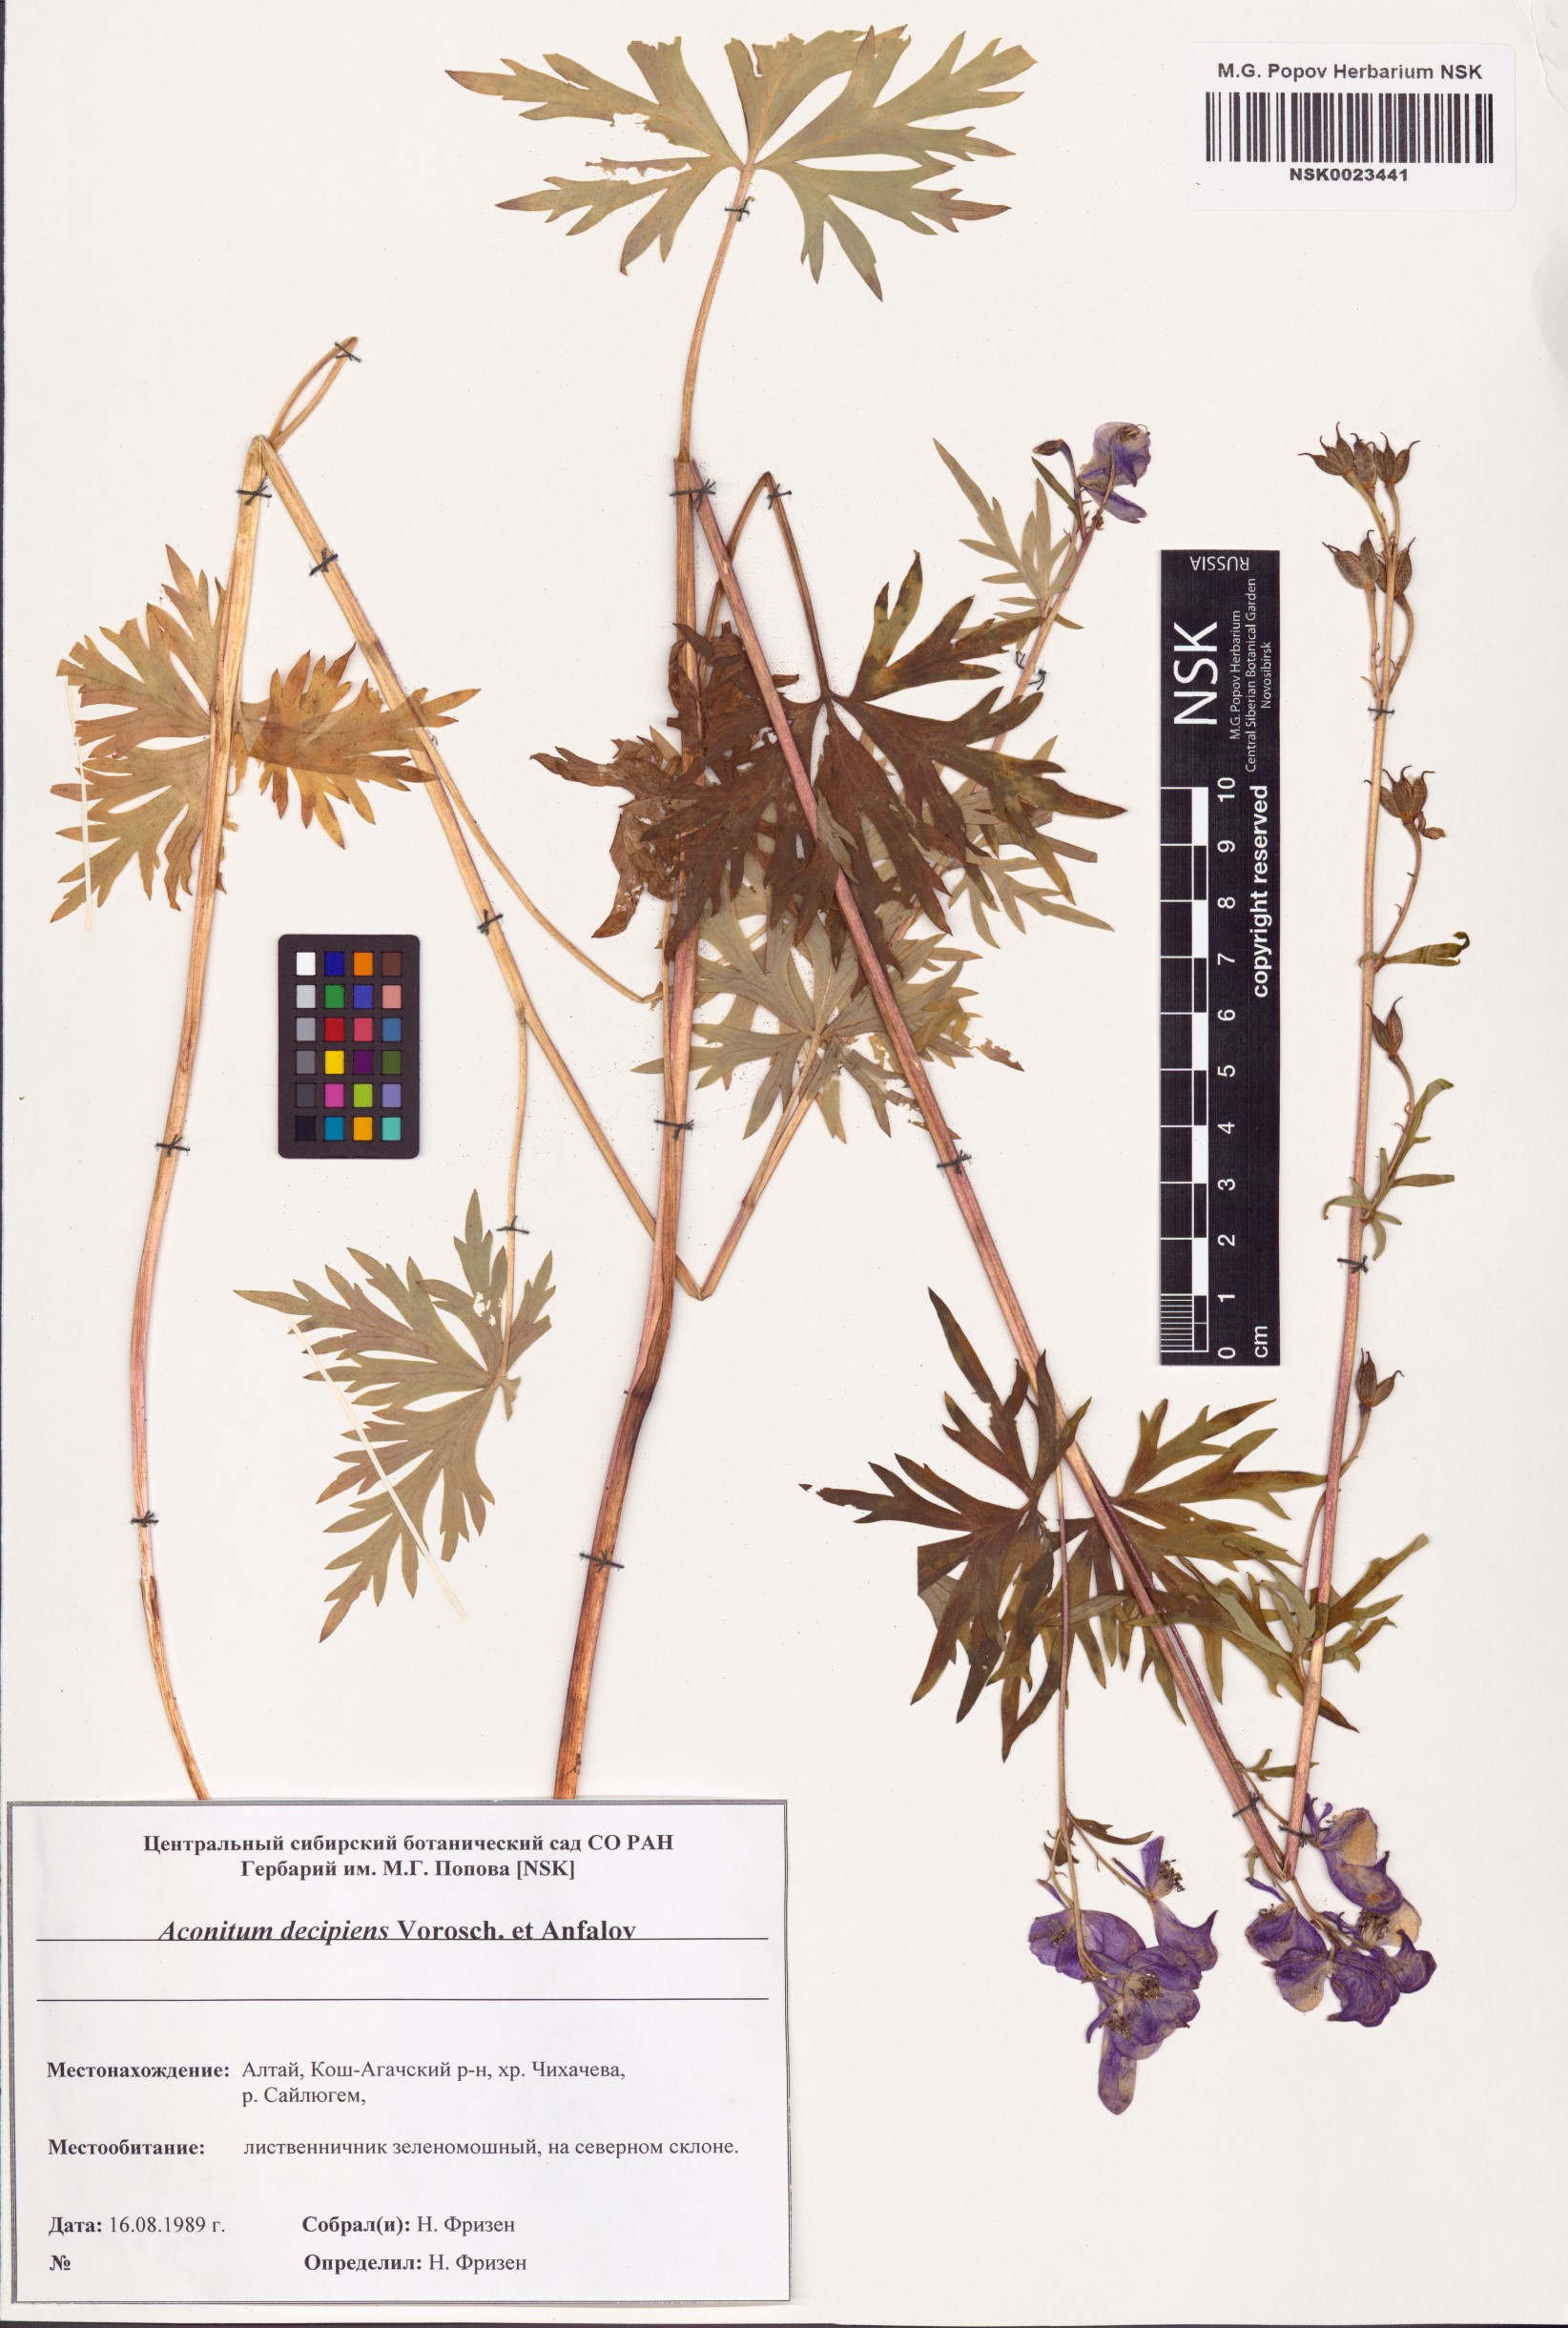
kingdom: Plantae
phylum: Tracheophyta
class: Magnoliopsida
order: Ranunculales
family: Ranunculaceae
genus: Aconitum
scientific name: Aconitum decipiens
